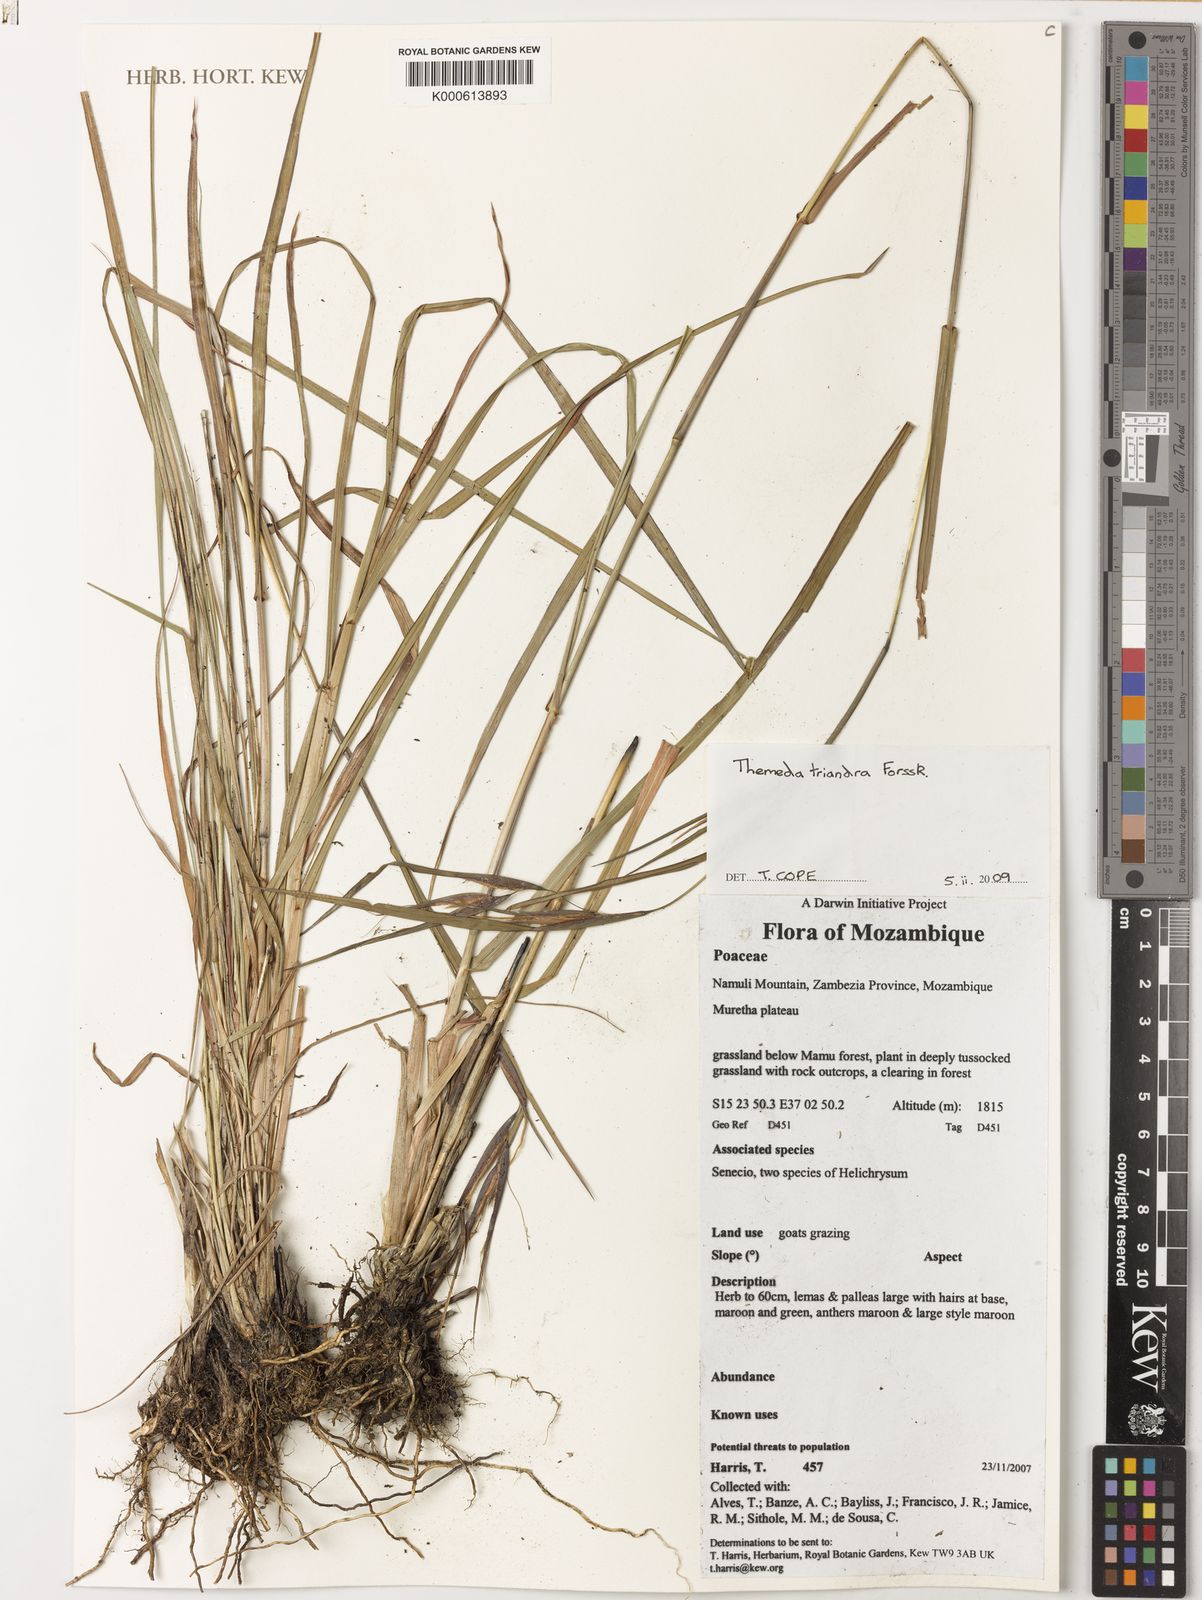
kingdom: Plantae
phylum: Tracheophyta
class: Liliopsida
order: Poales
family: Poaceae
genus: Themeda
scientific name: Themeda triandra
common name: Kangaroo grass
